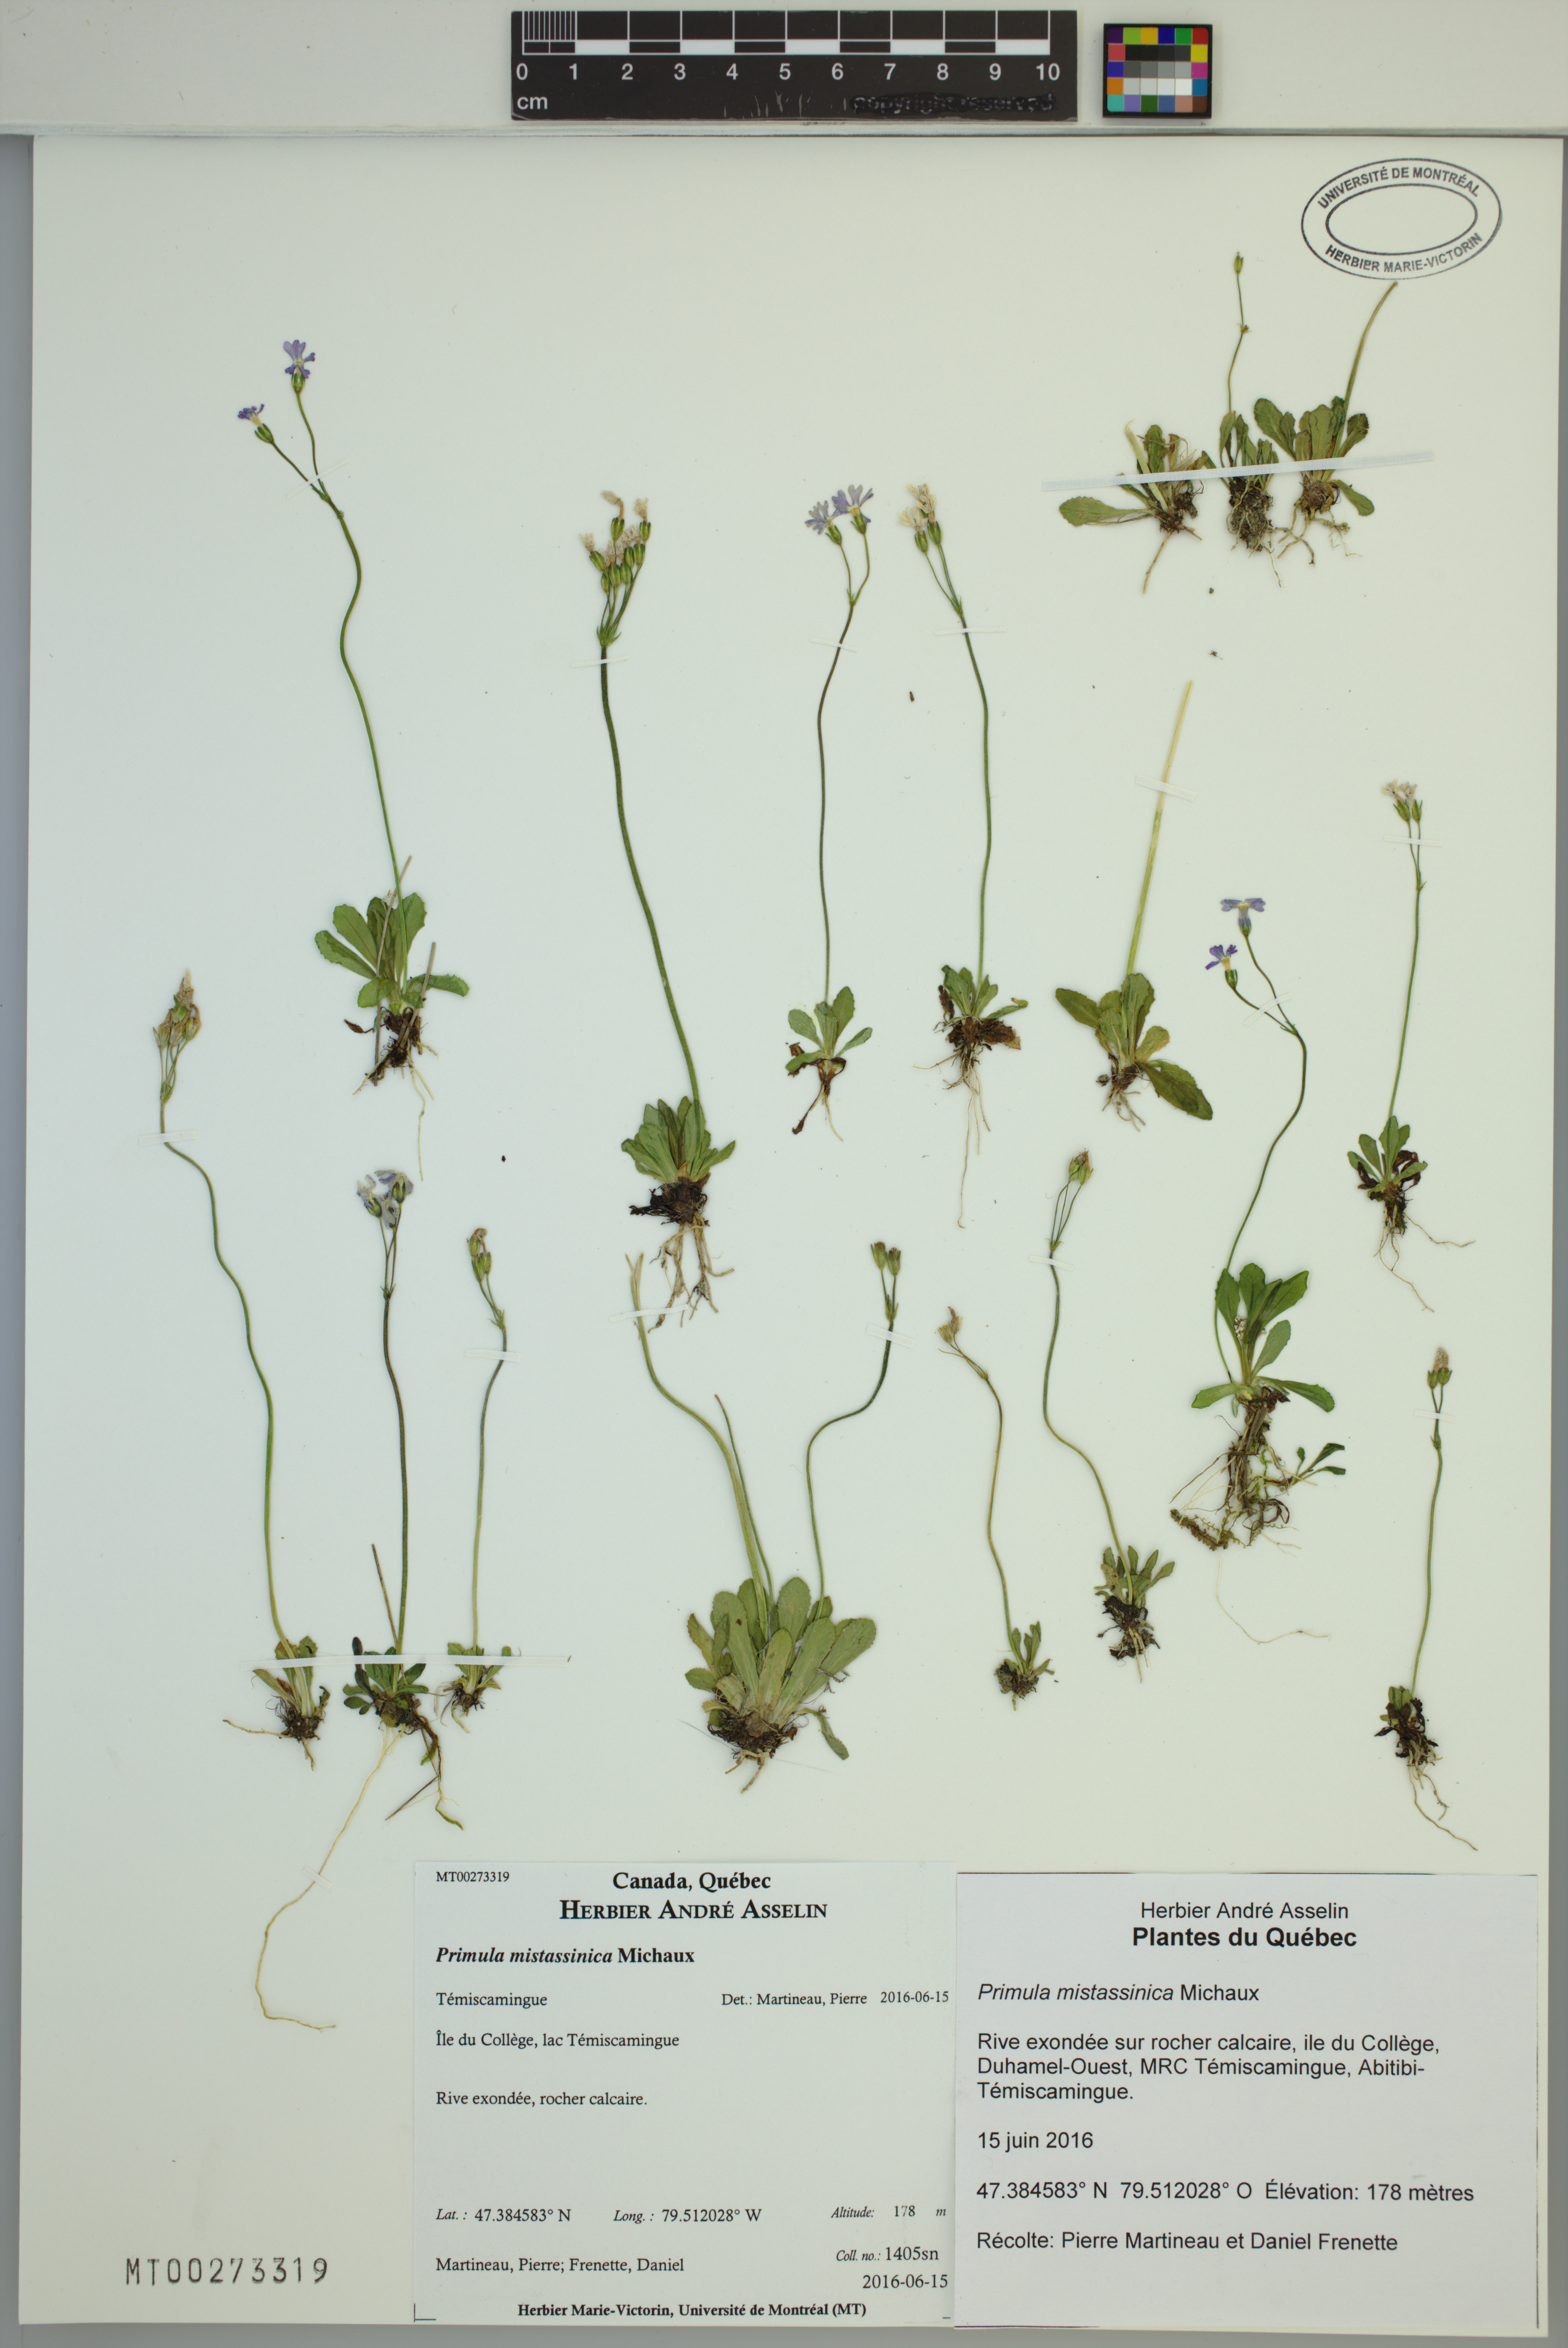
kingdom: Plantae
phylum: Tracheophyta
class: Magnoliopsida
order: Ericales
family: Primulaceae
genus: Primula
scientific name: Primula mistassinica
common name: Bird's-eye primrose
